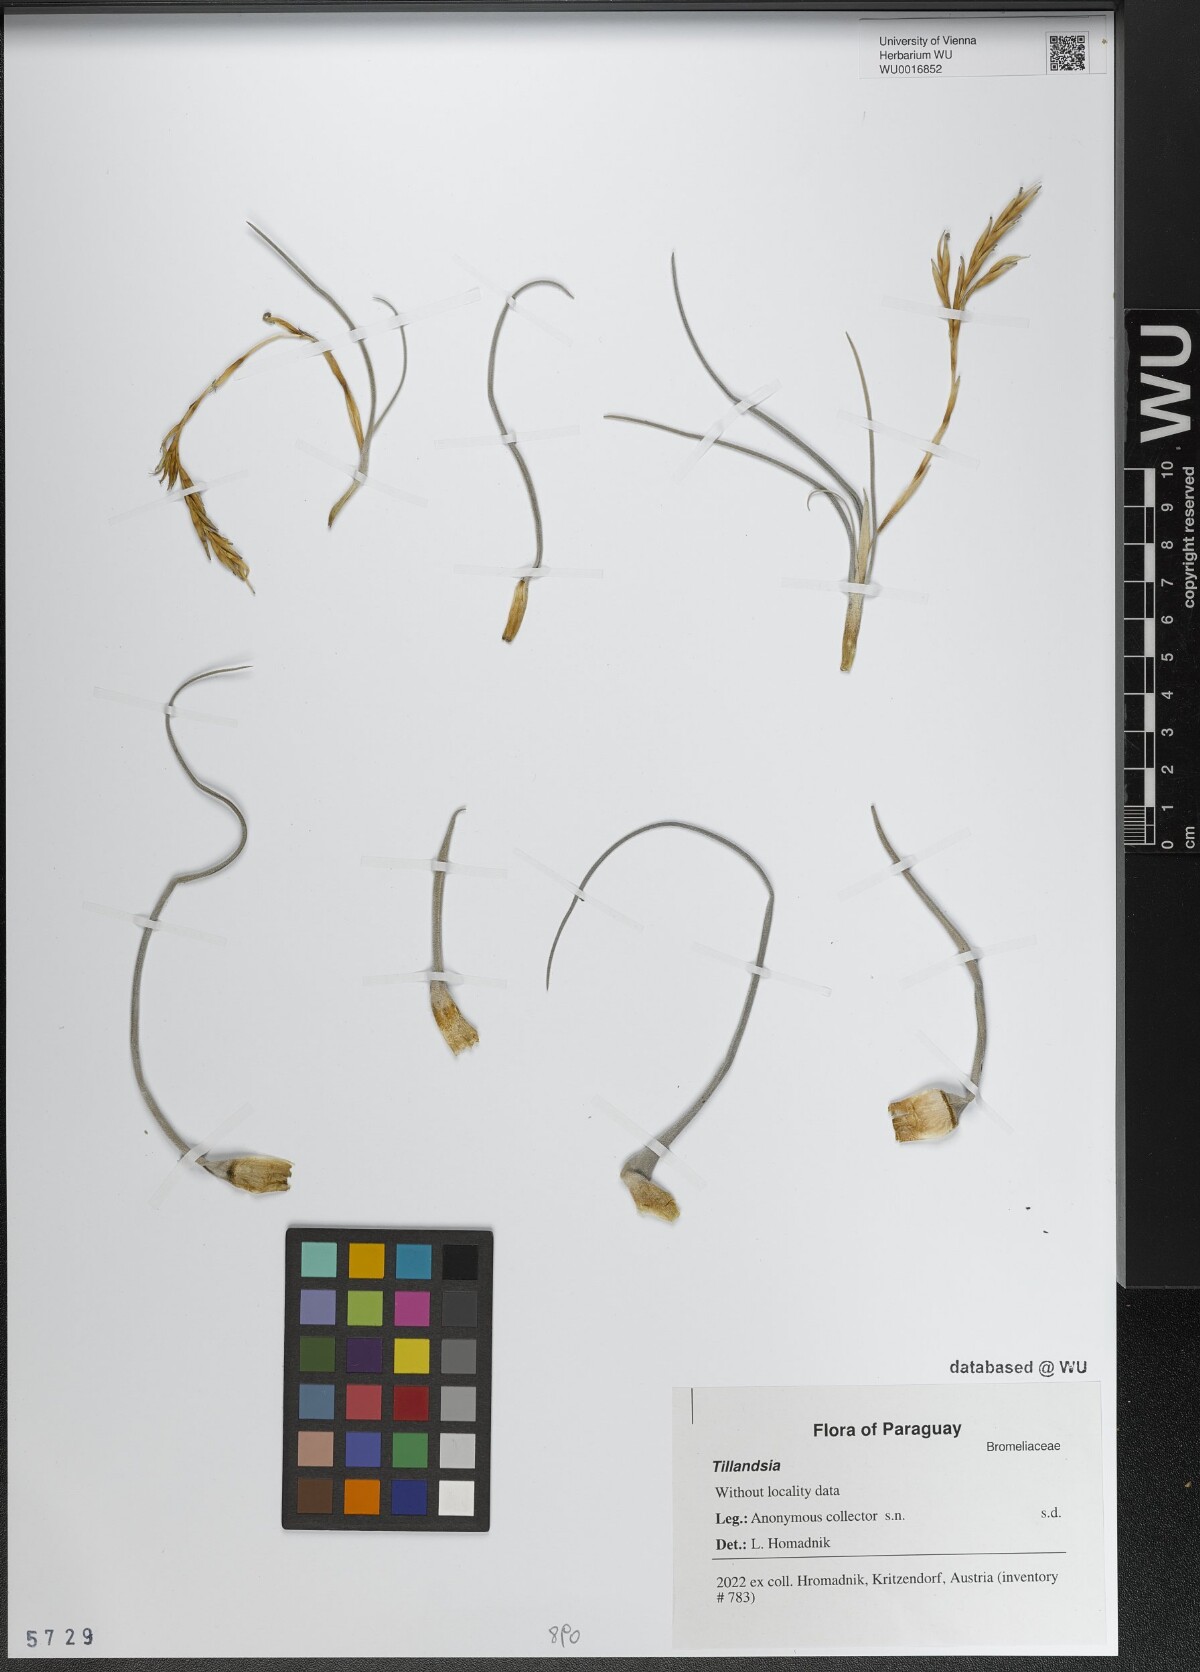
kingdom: Plantae
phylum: Tracheophyta
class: Liliopsida
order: Poales
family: Bromeliaceae
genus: Tillandsia
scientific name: Tillandsia
